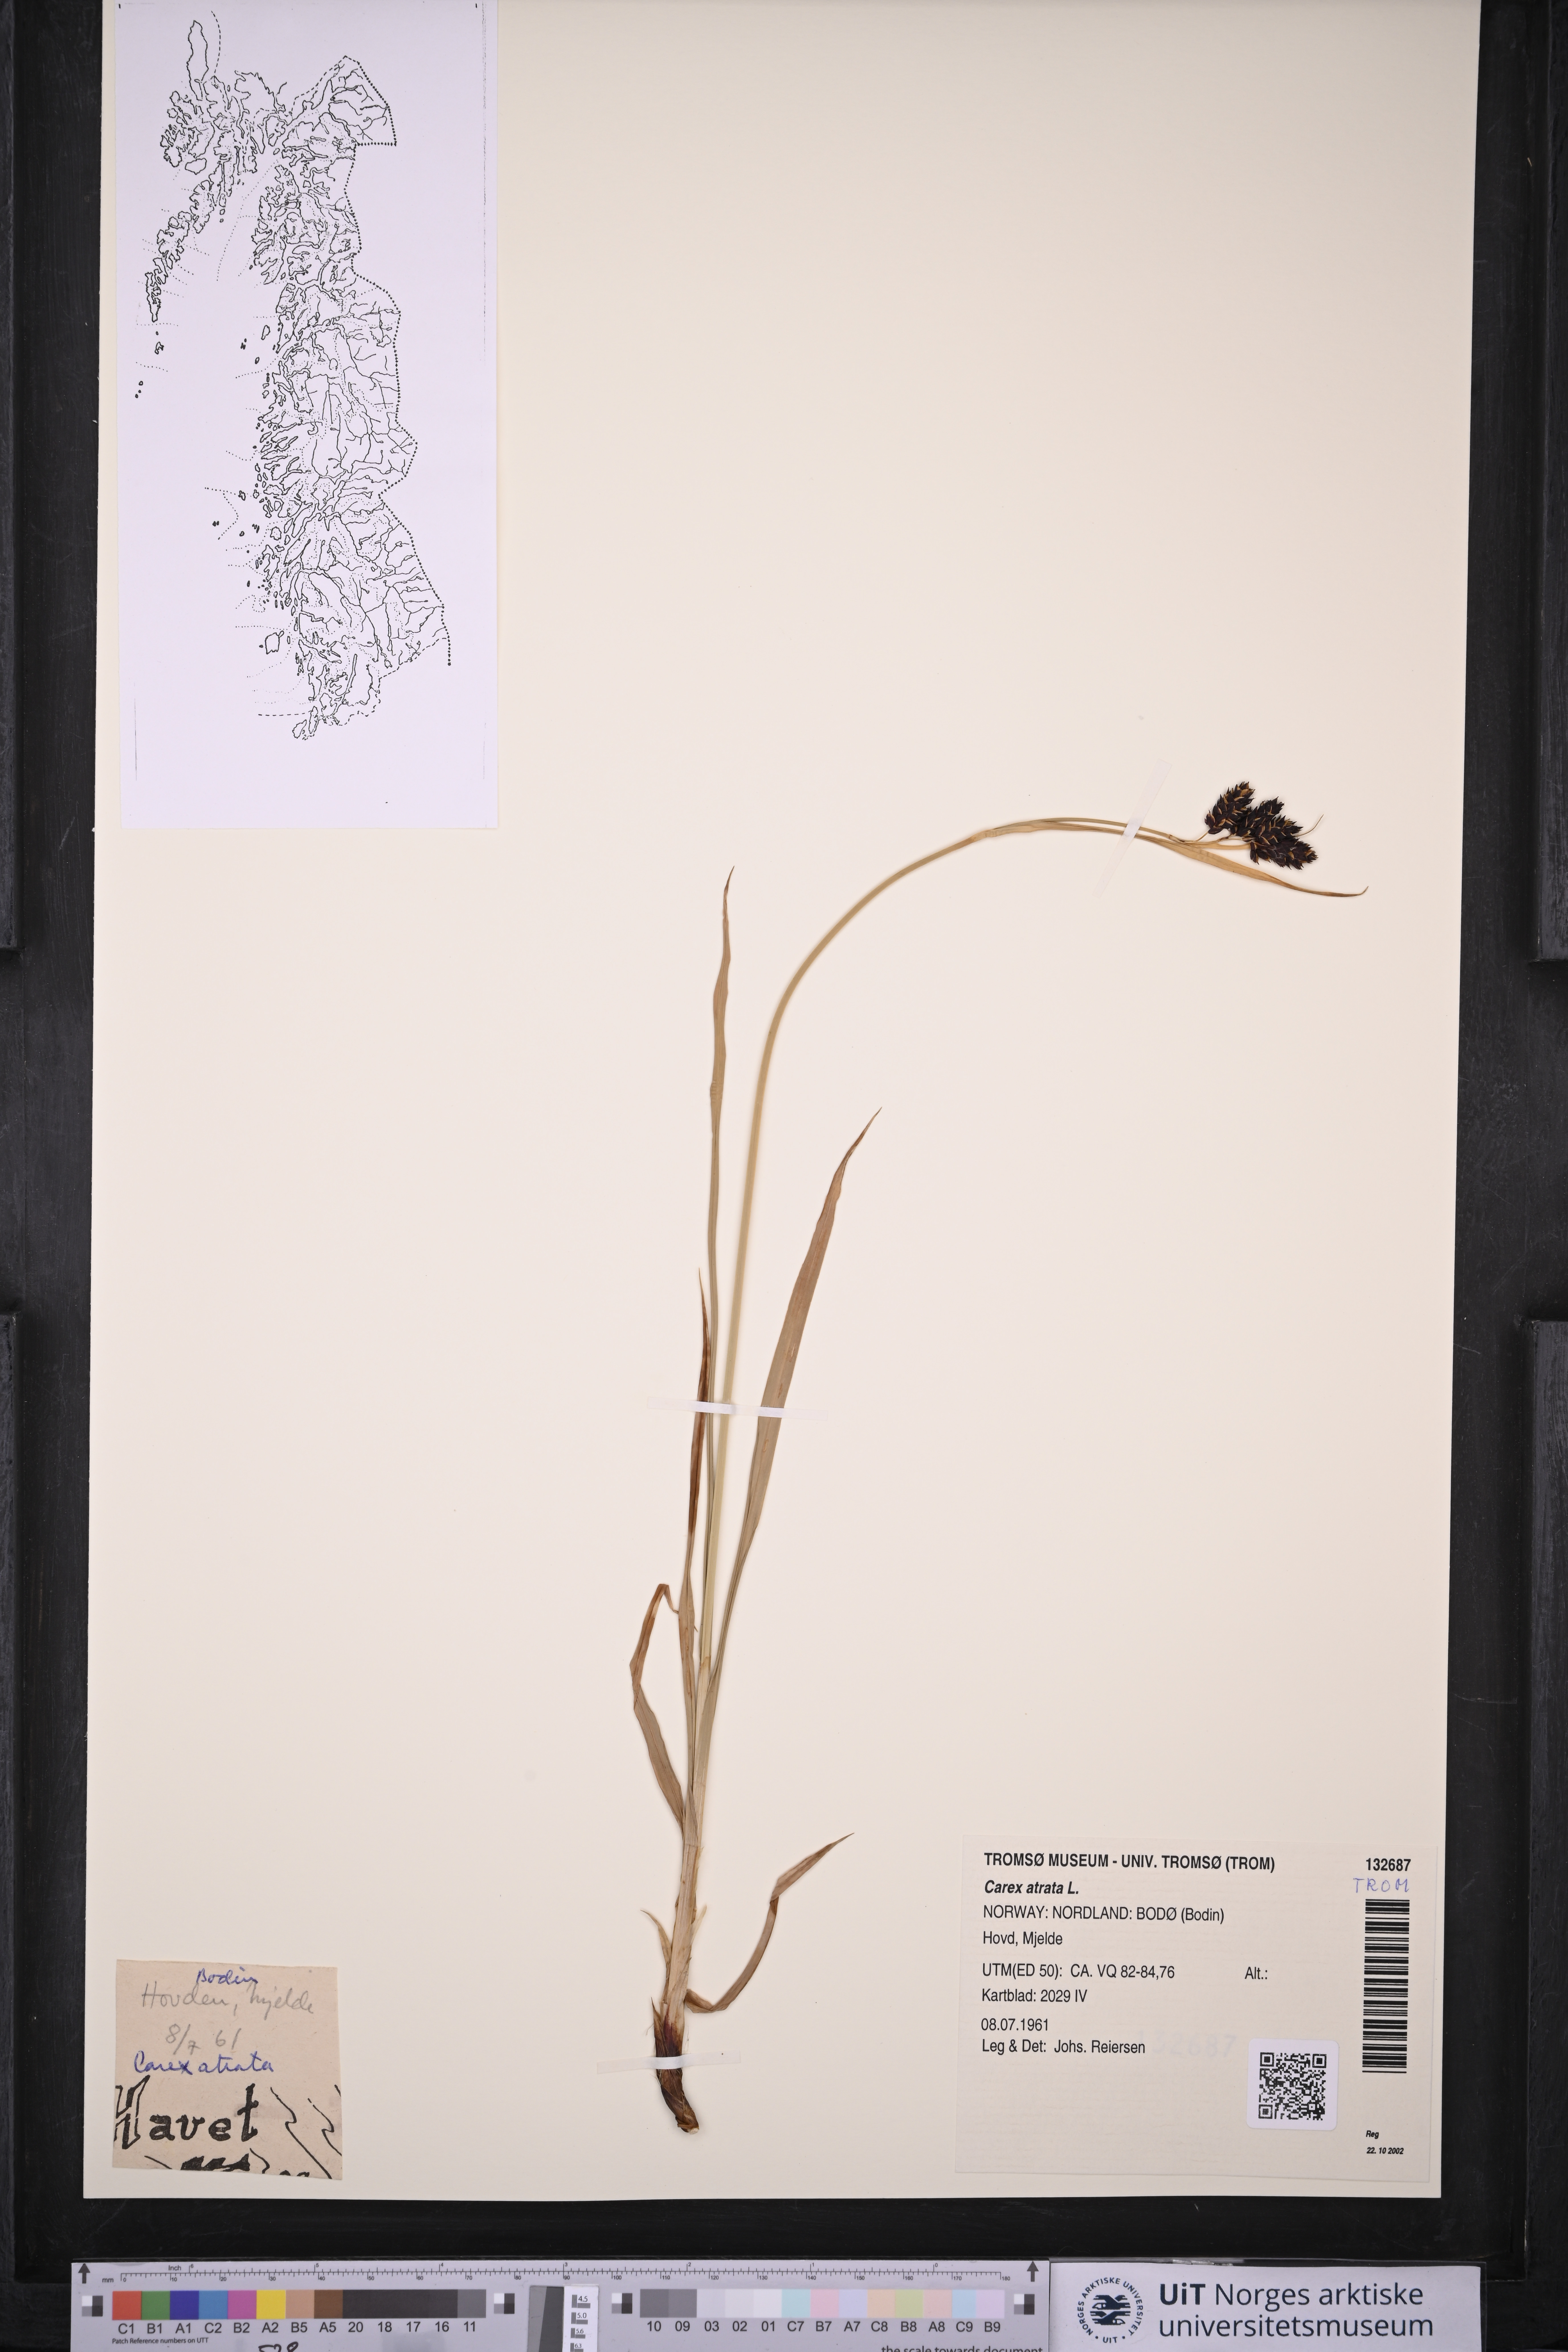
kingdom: Plantae
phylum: Tracheophyta
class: Liliopsida
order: Poales
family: Cyperaceae
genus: Carex
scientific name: Carex atrata
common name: Black alpine sedge
